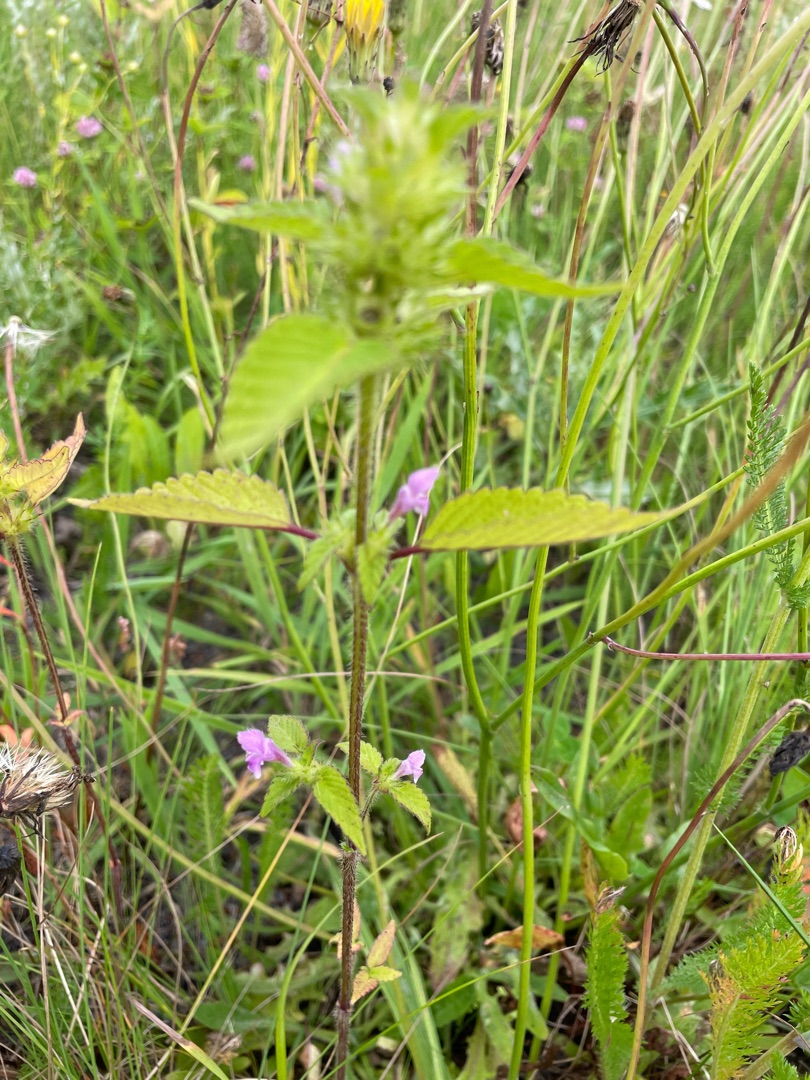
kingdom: Plantae
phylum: Tracheophyta
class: Magnoliopsida
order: Lamiales
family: Lamiaceae
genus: Galeopsis
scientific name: Galeopsis
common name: Hanekroslægten
